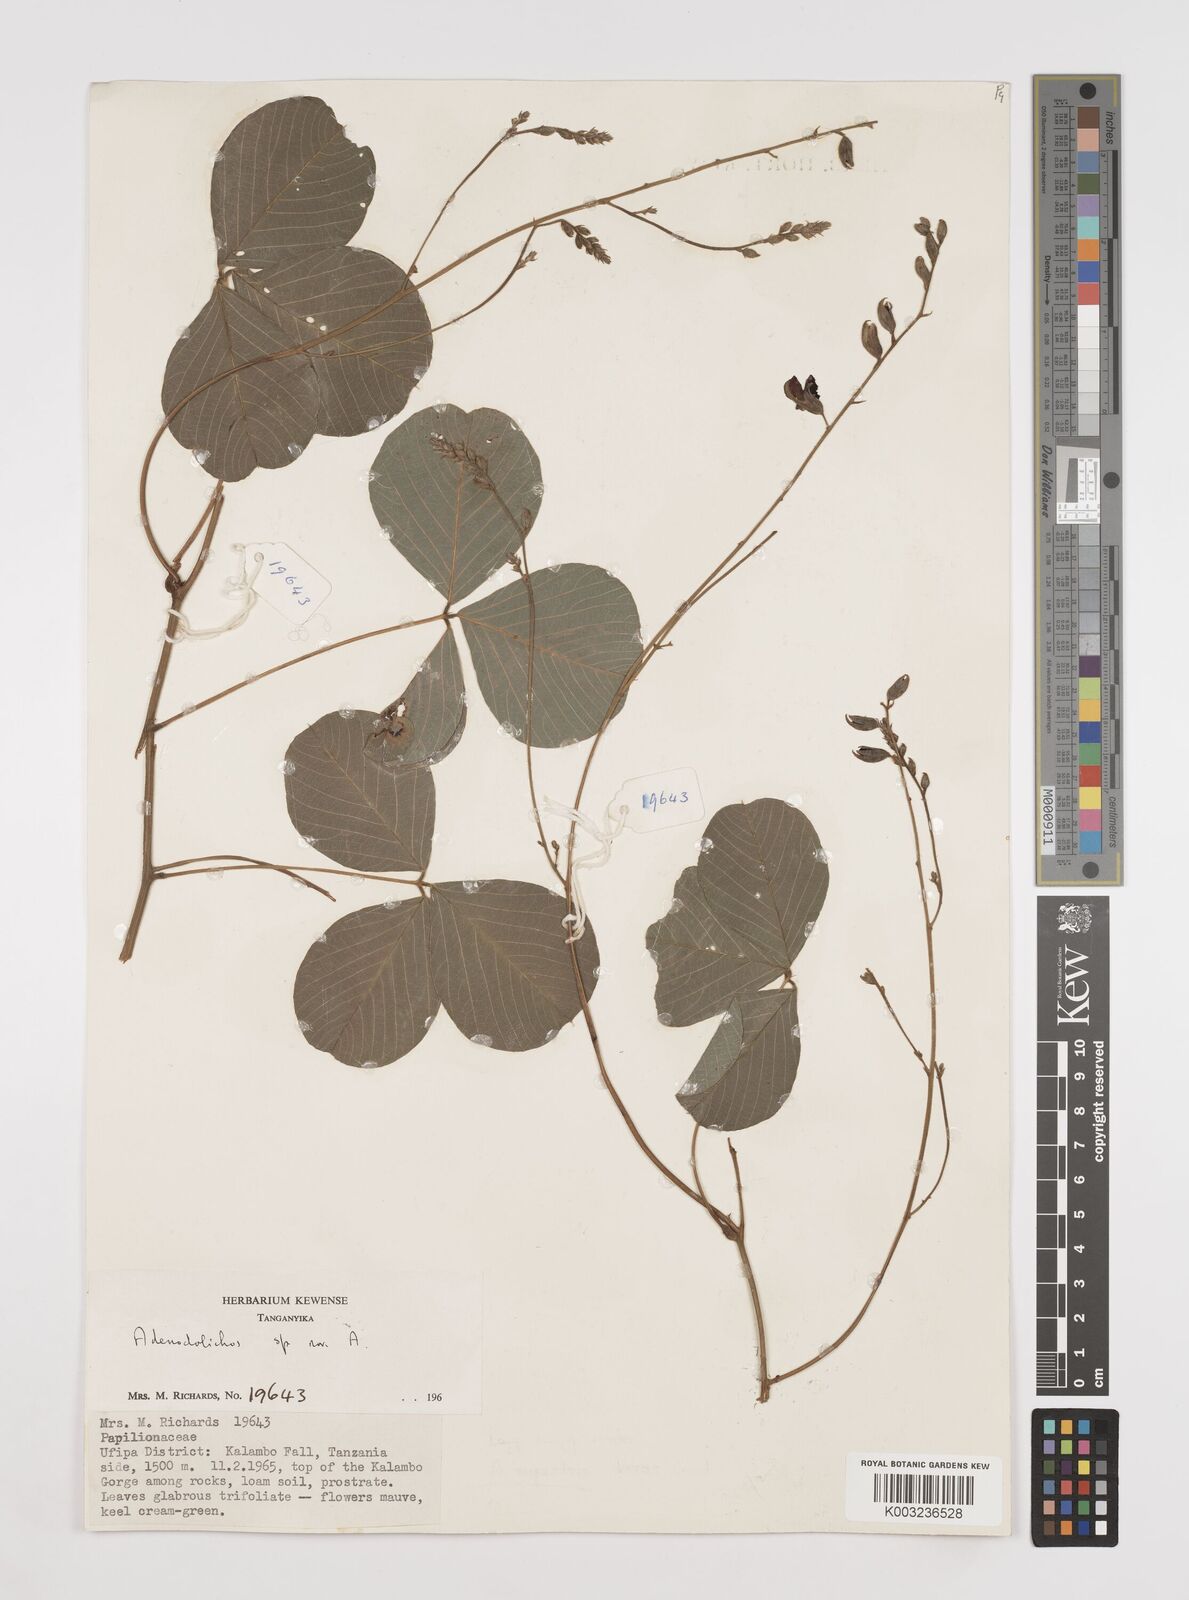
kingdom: Plantae
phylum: Tracheophyta
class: Magnoliopsida
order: Fabales
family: Fabaceae
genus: Adenodolichos
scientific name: Adenodolichos rupestris
